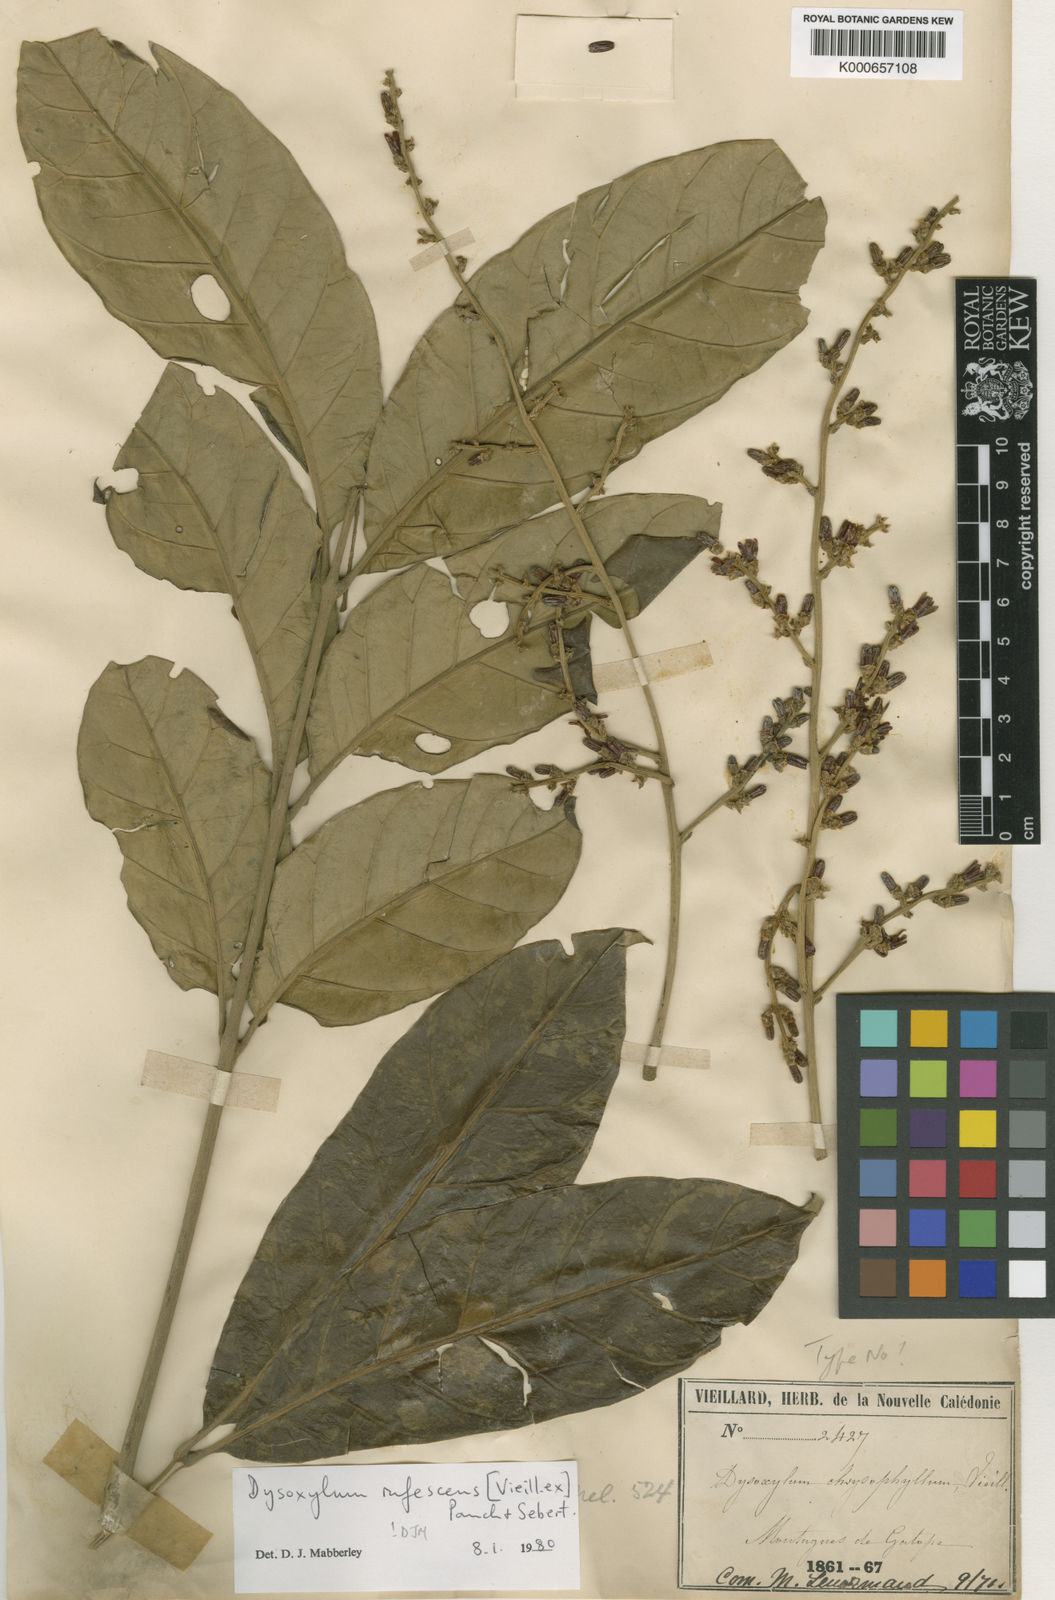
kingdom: Plantae
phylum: Tracheophyta
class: Magnoliopsida
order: Sapindales
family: Meliaceae
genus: Didymocheton
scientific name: Didymocheton rufescens
